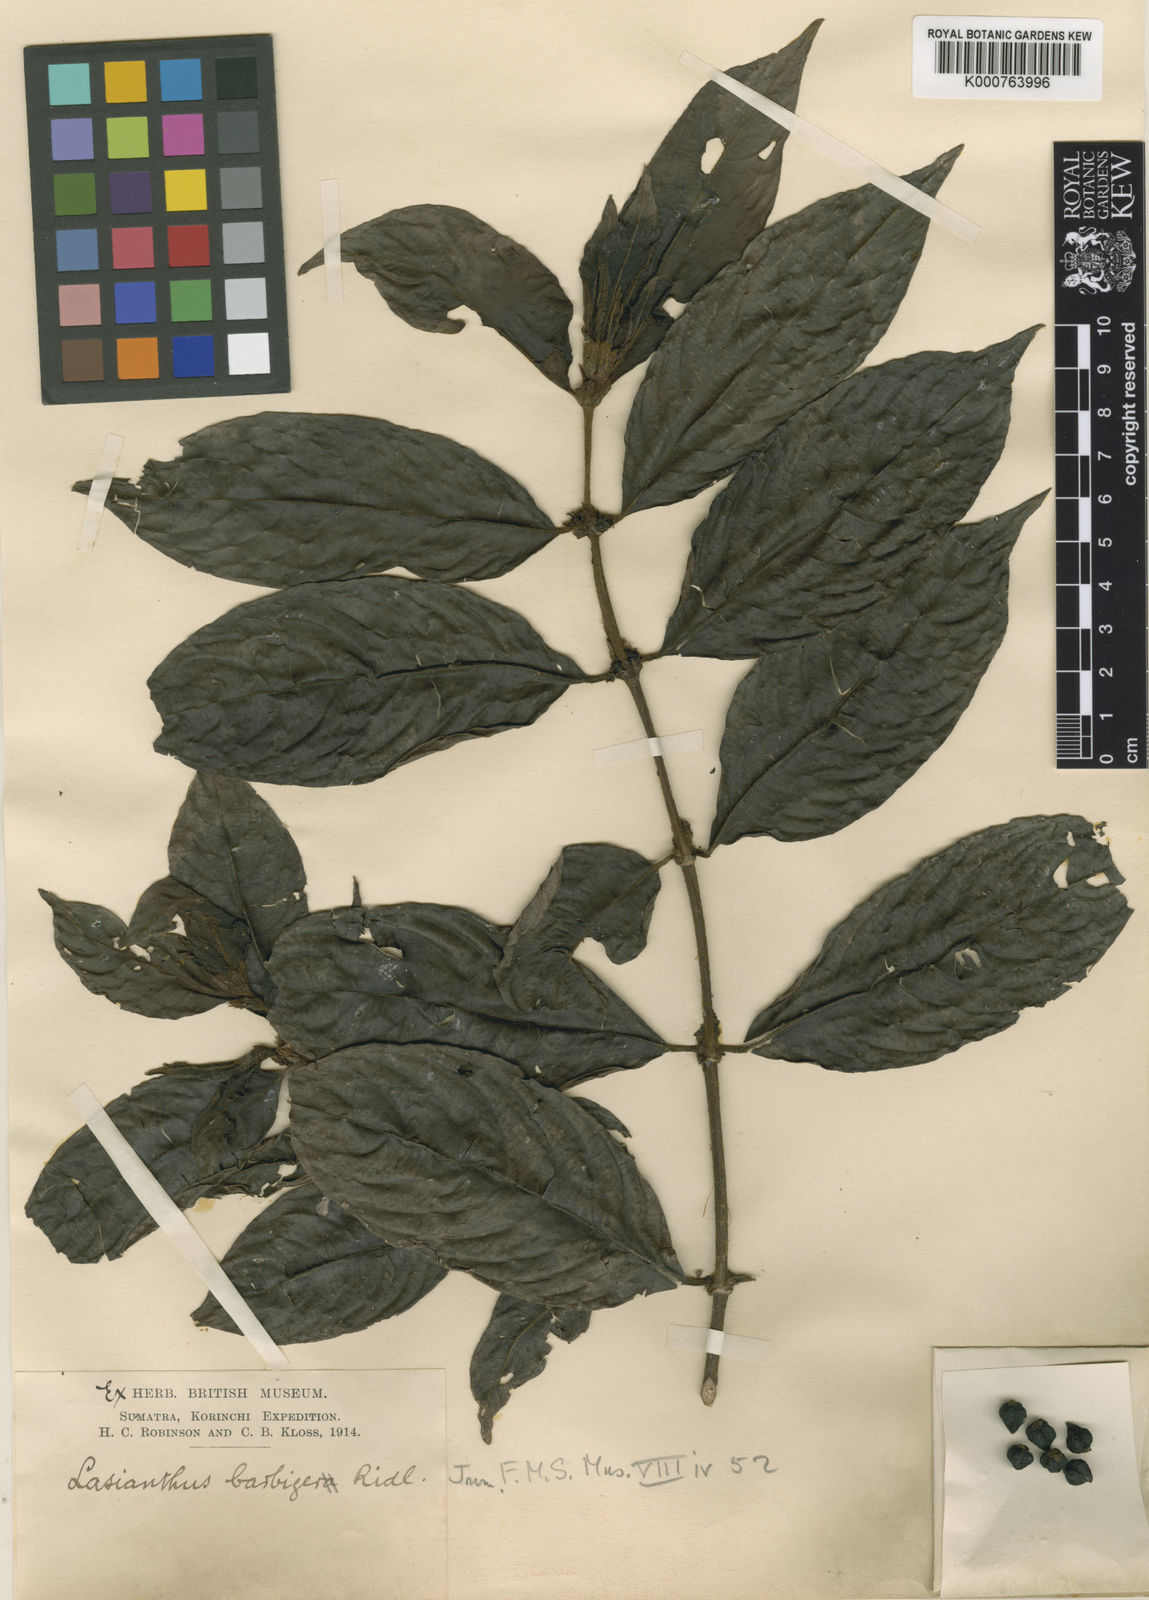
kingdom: Plantae
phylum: Tracheophyta
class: Magnoliopsida
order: Gentianales
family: Rubiaceae
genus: Lasianthus
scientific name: Lasianthus borneensis
